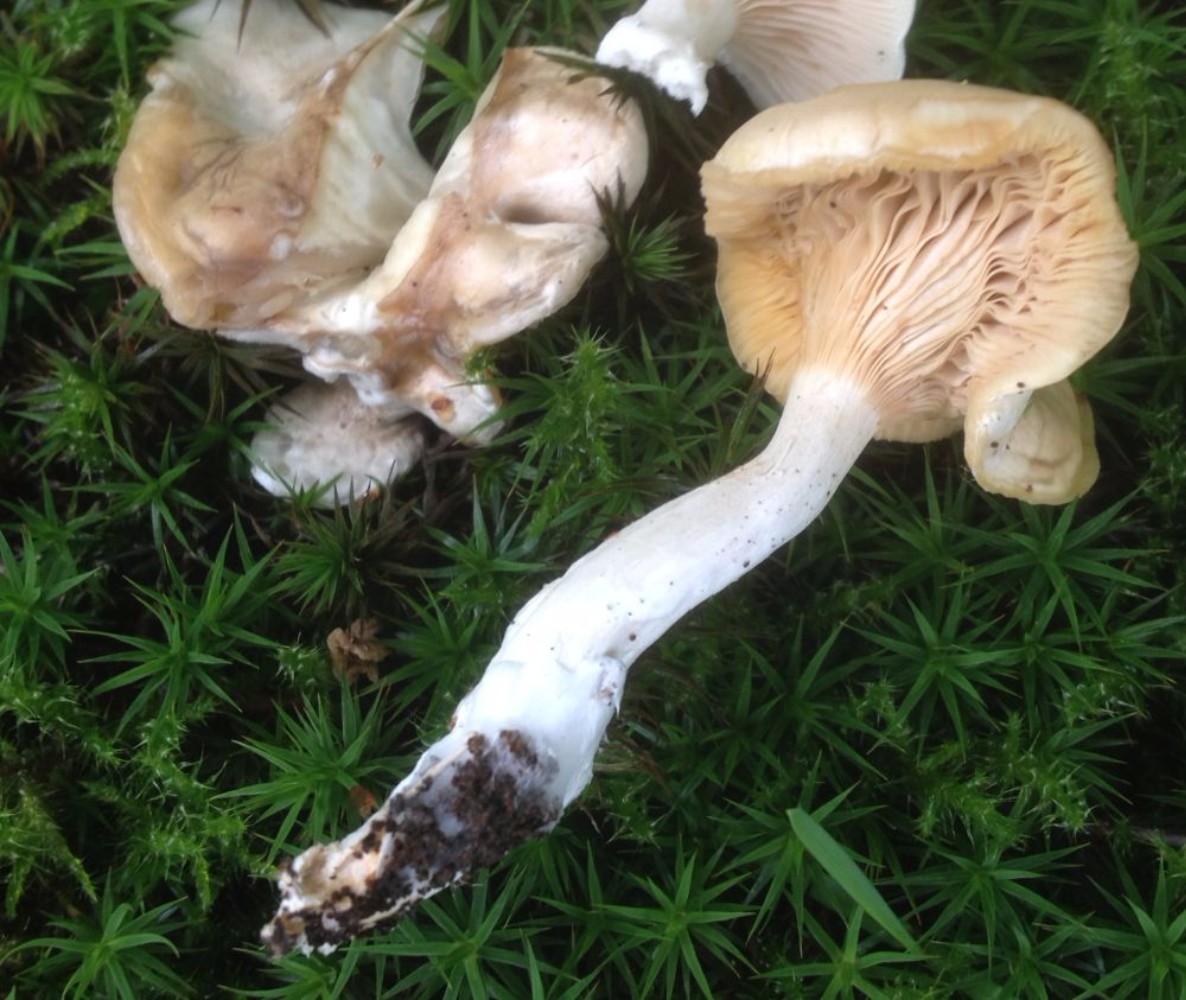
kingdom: Fungi
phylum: Basidiomycota
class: Agaricomycetes
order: Agaricales
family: Entolomataceae
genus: Clitopilus
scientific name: Clitopilus prunulus
